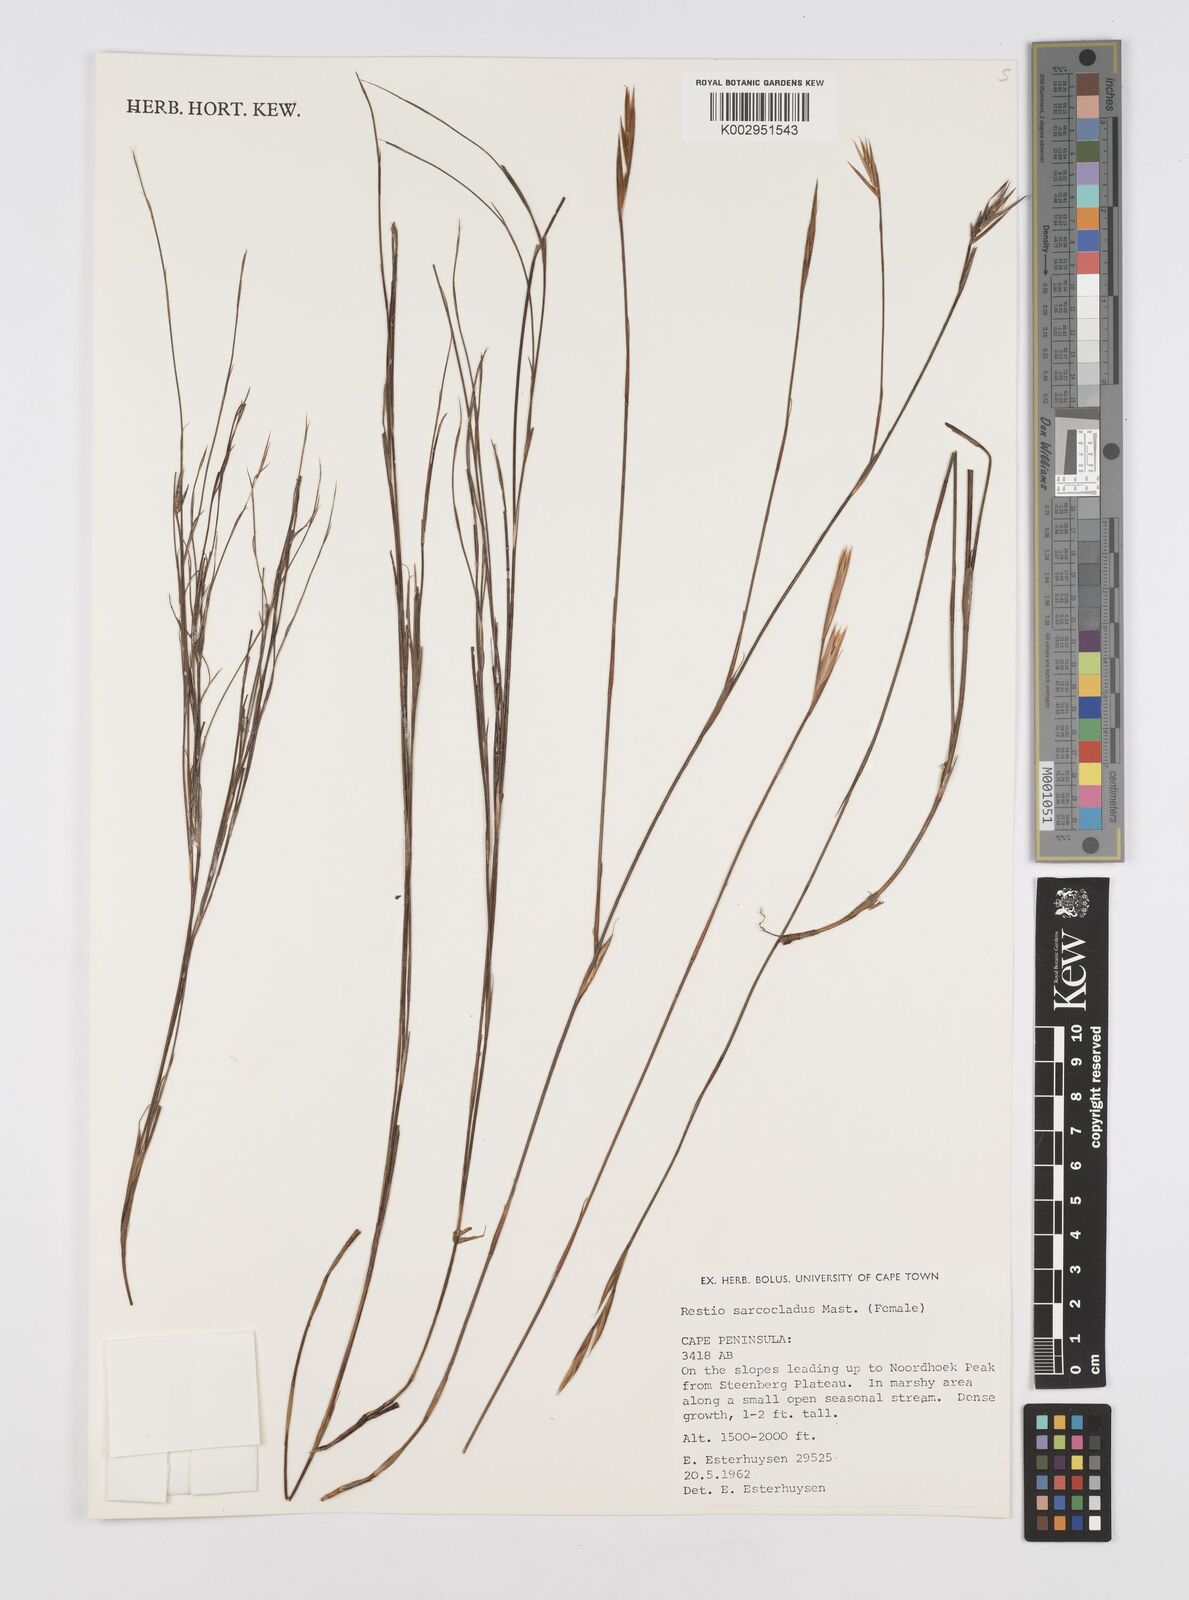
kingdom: Plantae
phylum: Tracheophyta
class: Liliopsida
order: Poales
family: Restionaceae
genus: Restio
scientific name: Restio saroclados
